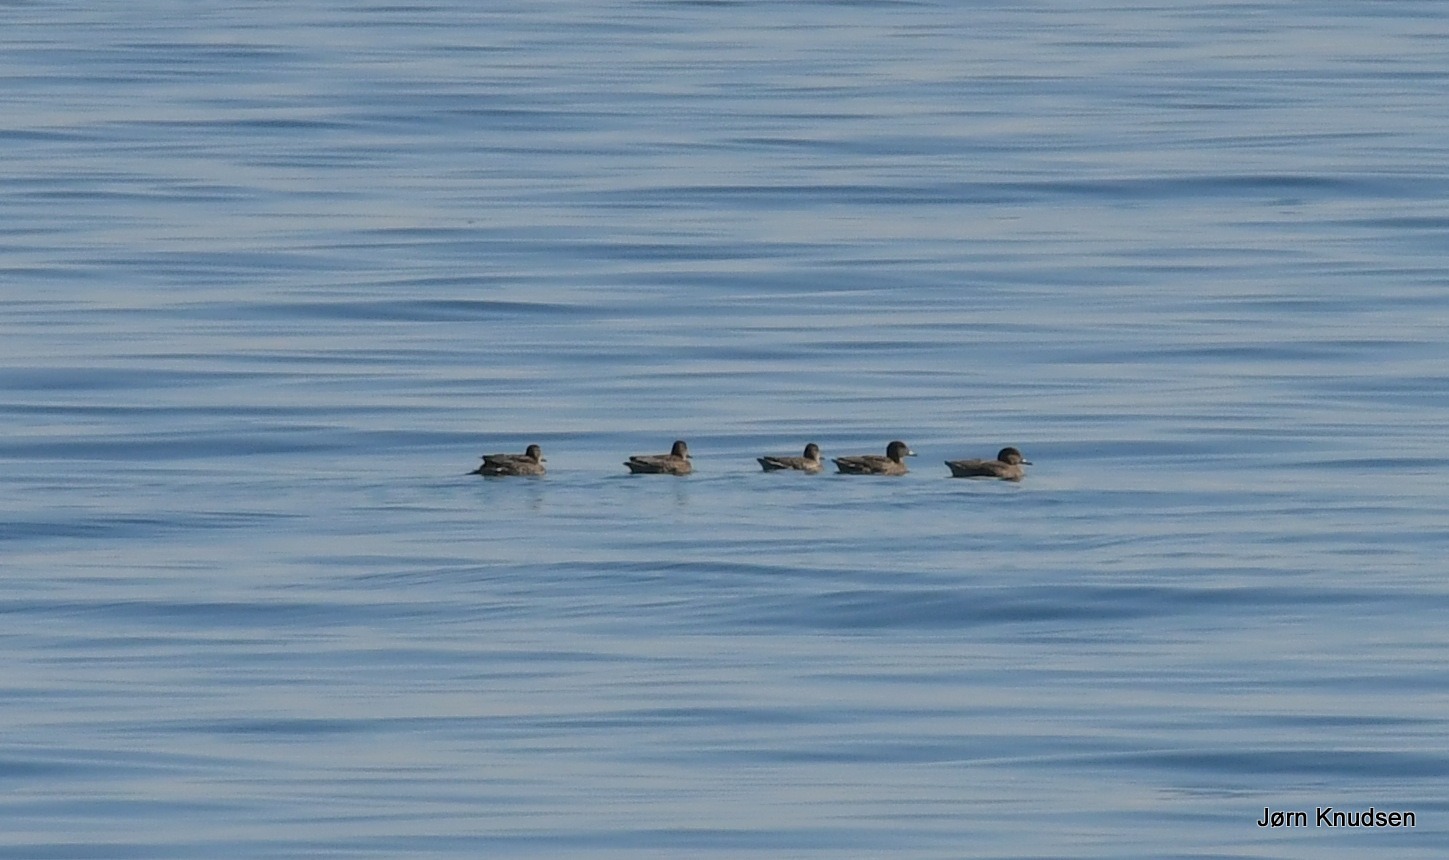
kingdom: Animalia
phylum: Chordata
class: Aves
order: Anseriformes
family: Anatidae
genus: Somateria
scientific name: Somateria mollissima
